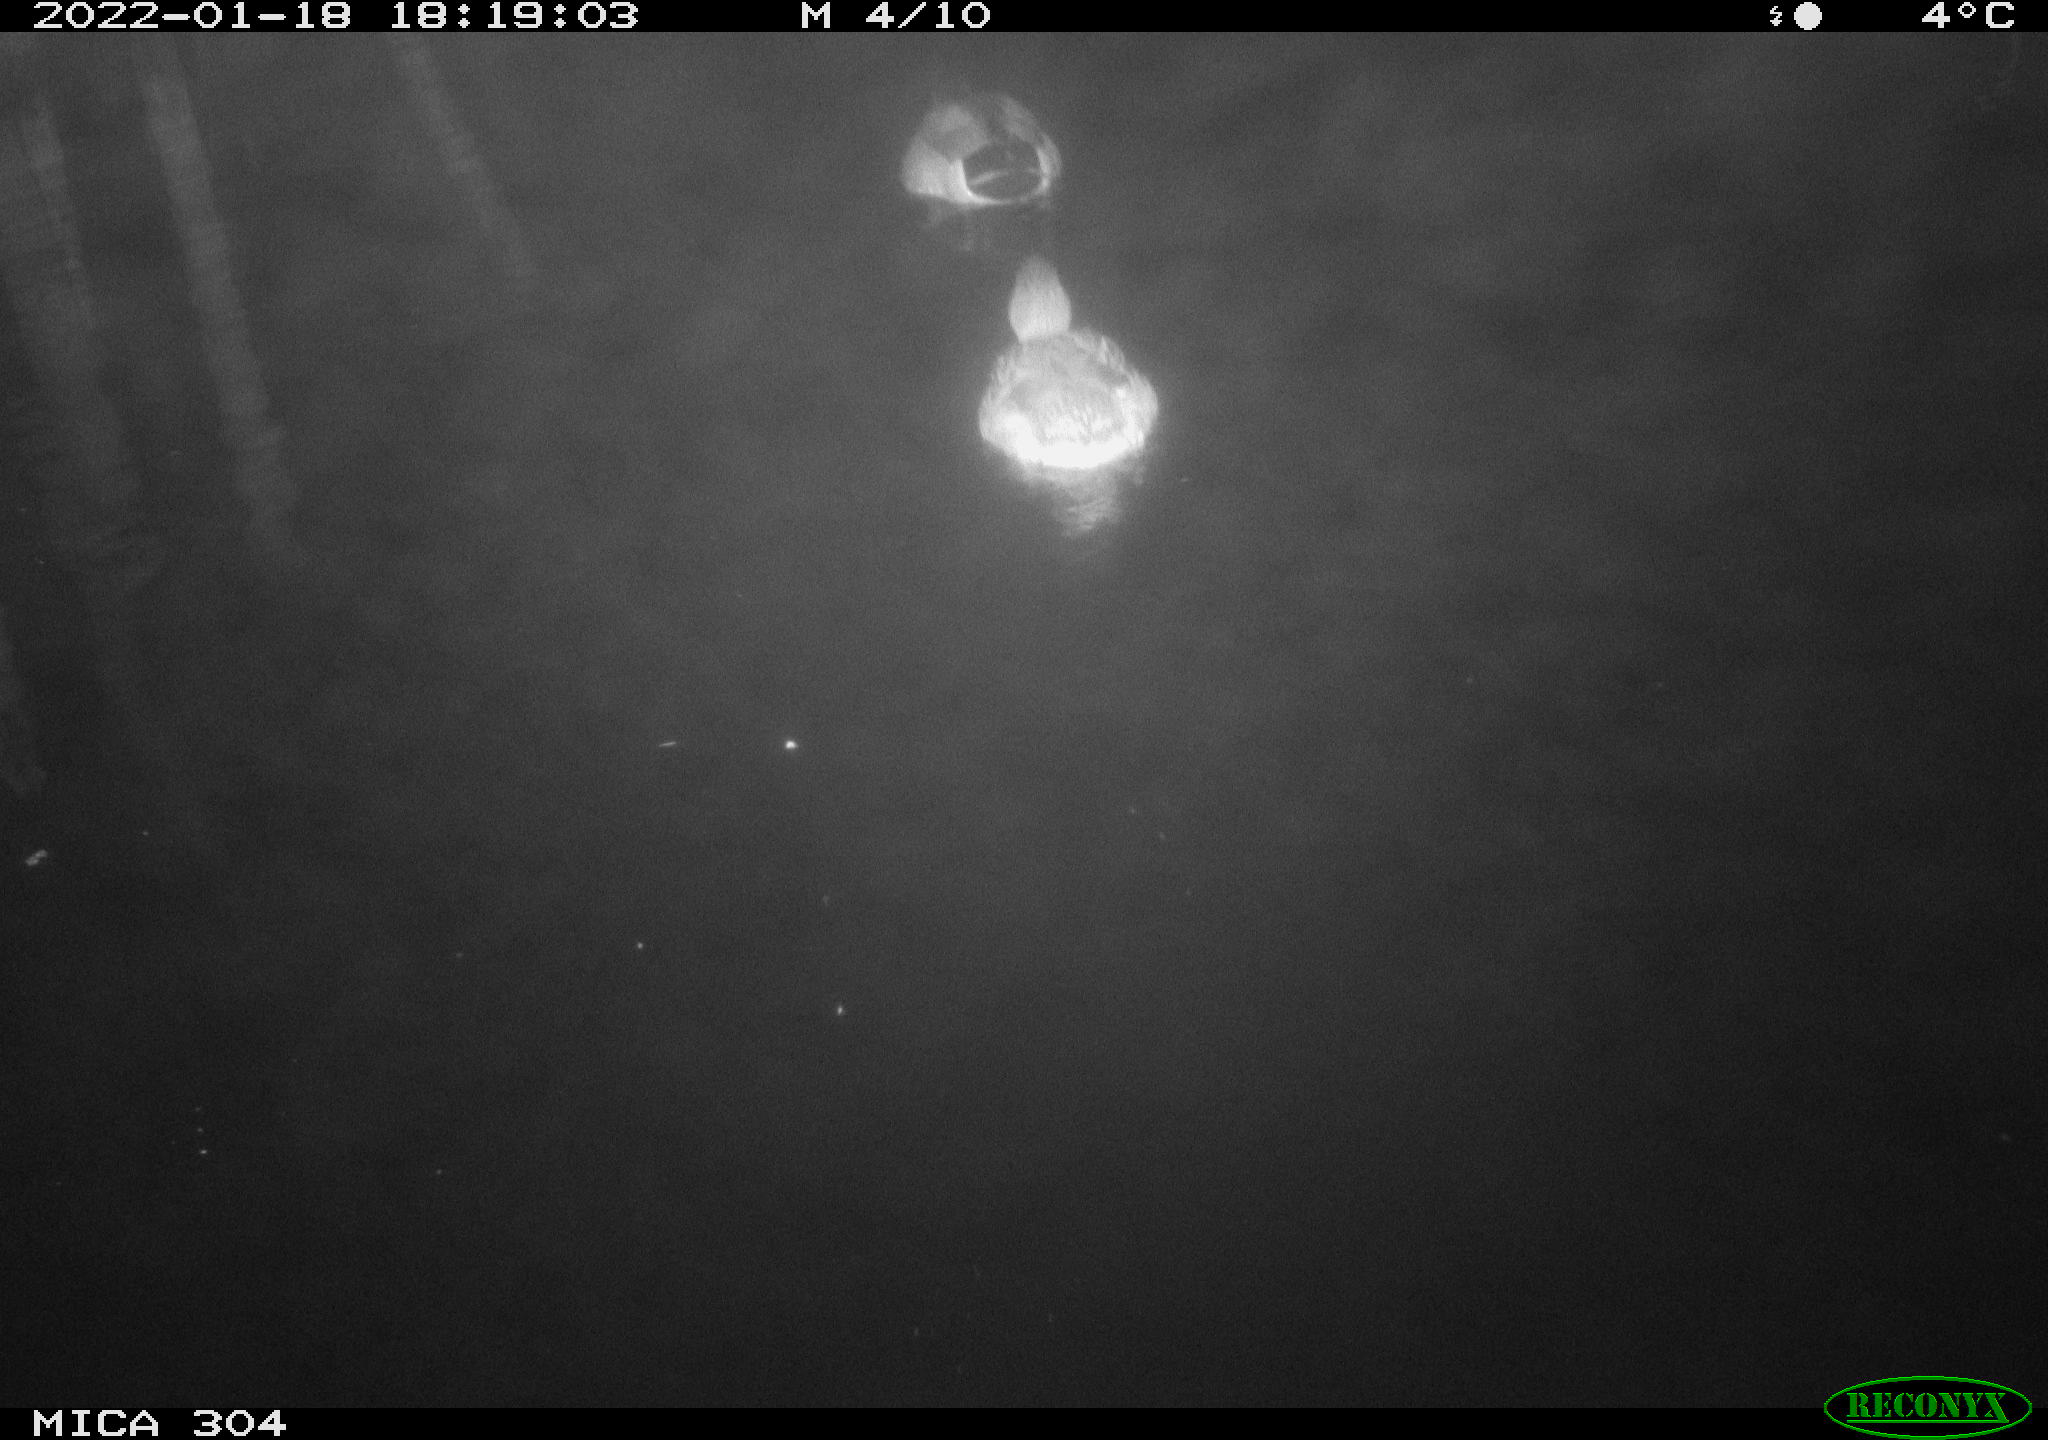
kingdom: Animalia
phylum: Chordata
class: Aves
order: Anseriformes
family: Anatidae
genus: Anas
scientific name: Anas
